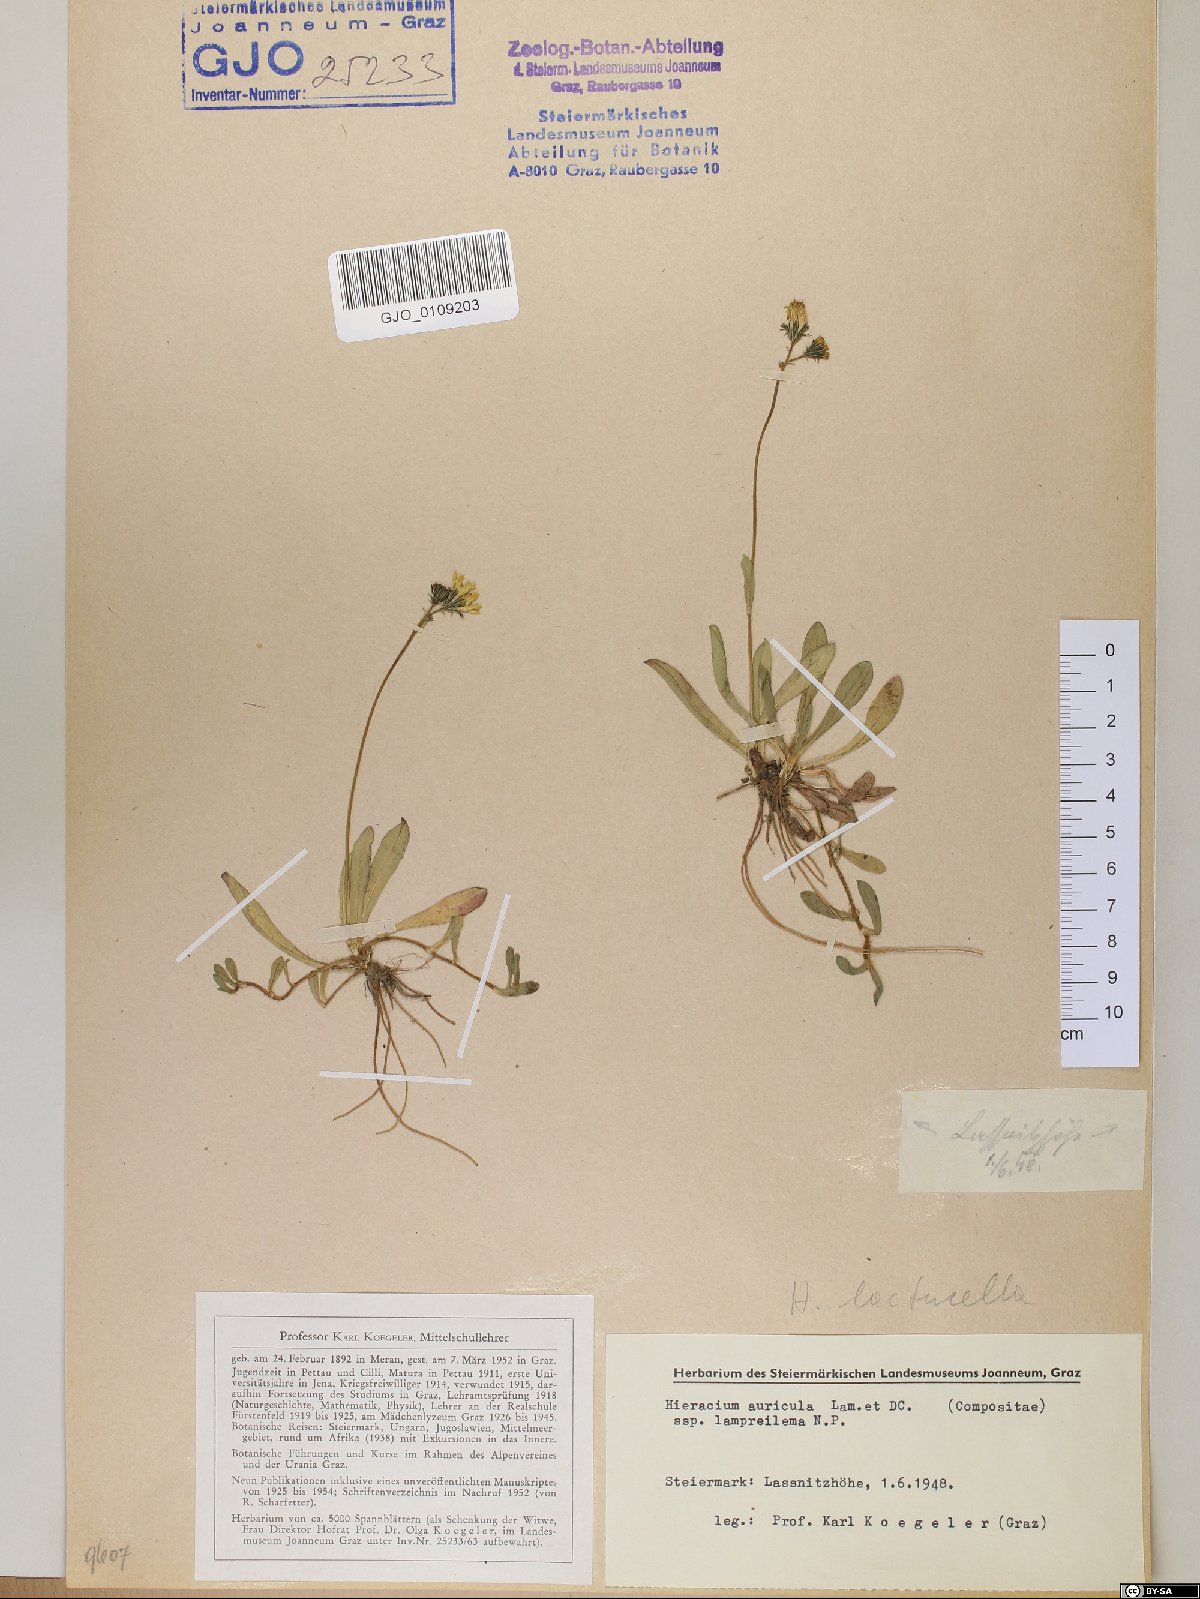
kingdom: Plantae
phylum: Tracheophyta
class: Magnoliopsida
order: Asterales
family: Asteraceae
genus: Hieracium
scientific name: Hieracium auricula
